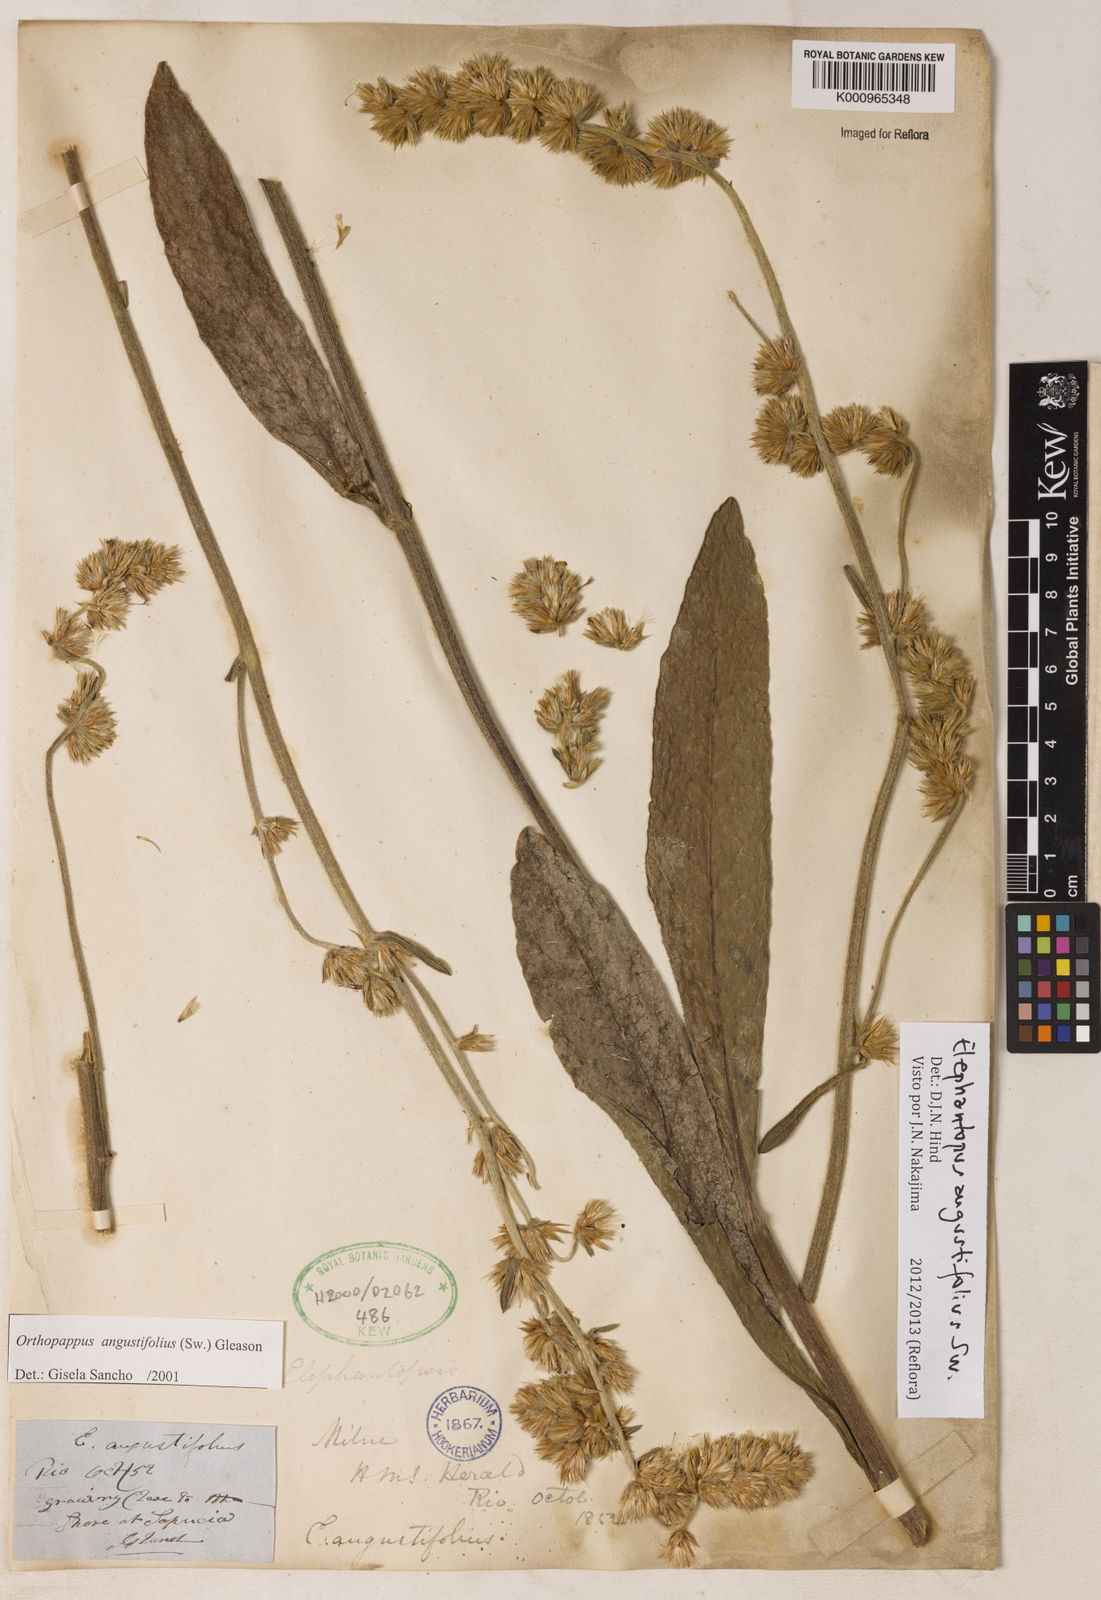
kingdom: Plantae
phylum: Tracheophyta
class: Magnoliopsida
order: Asterales
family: Asteraceae
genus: Orthopappus
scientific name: Orthopappus angustifolius
